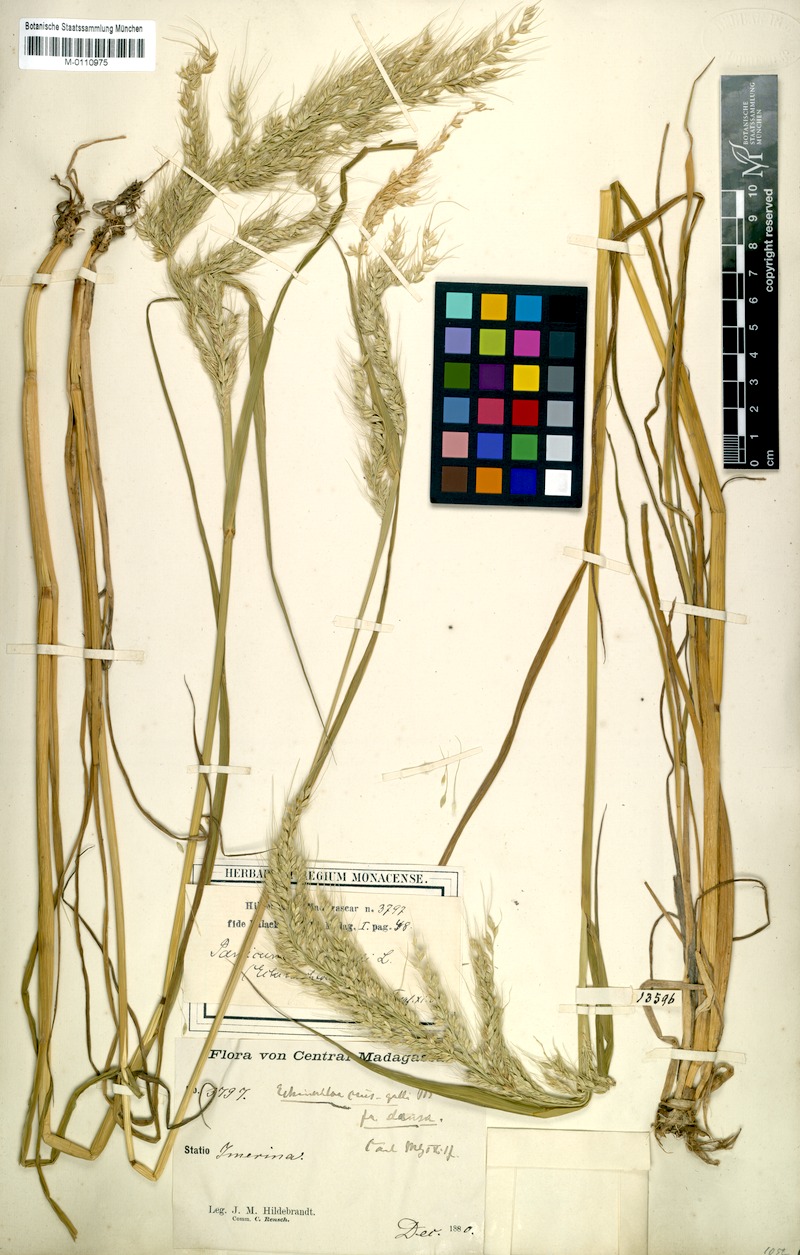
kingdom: Plantae
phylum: Tracheophyta
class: Liliopsida
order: Poales
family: Poaceae
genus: Echinochloa
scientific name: Echinochloa crus-gallii
